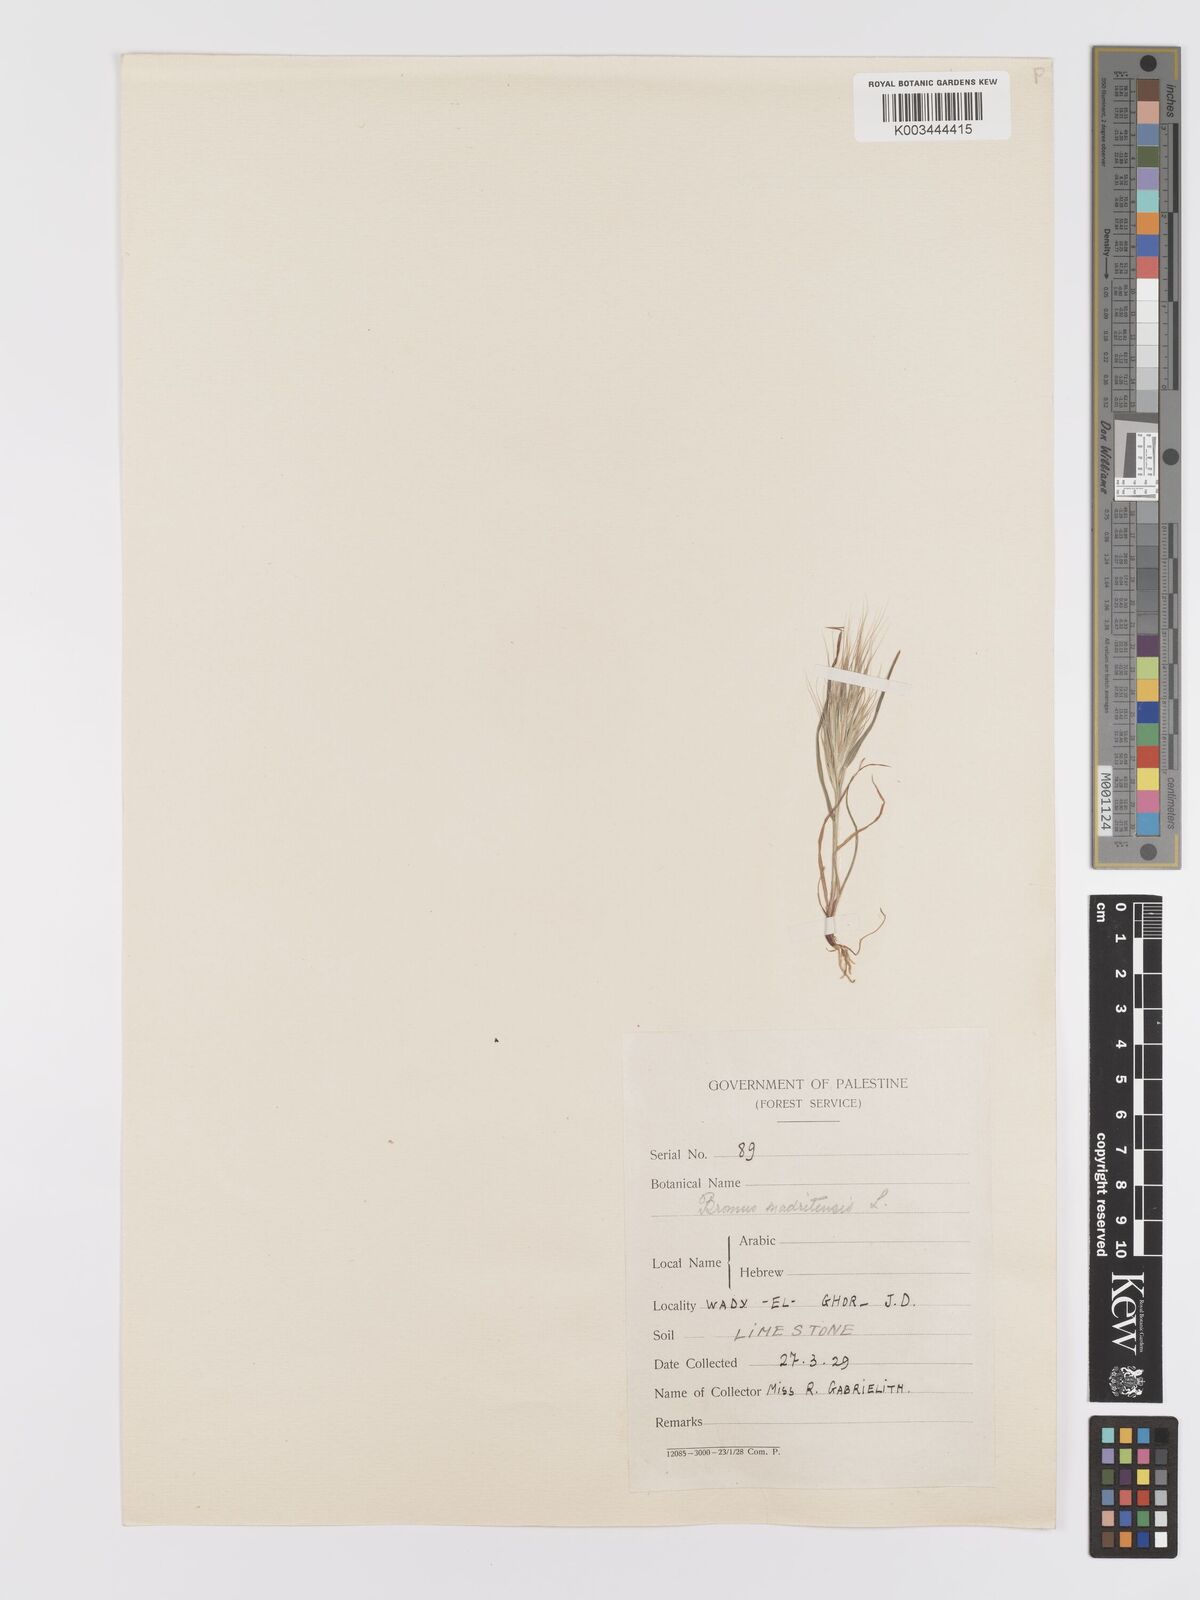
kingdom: Plantae
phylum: Tracheophyta
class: Liliopsida
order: Poales
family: Poaceae
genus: Bromus
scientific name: Bromus rubens
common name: Red brome
